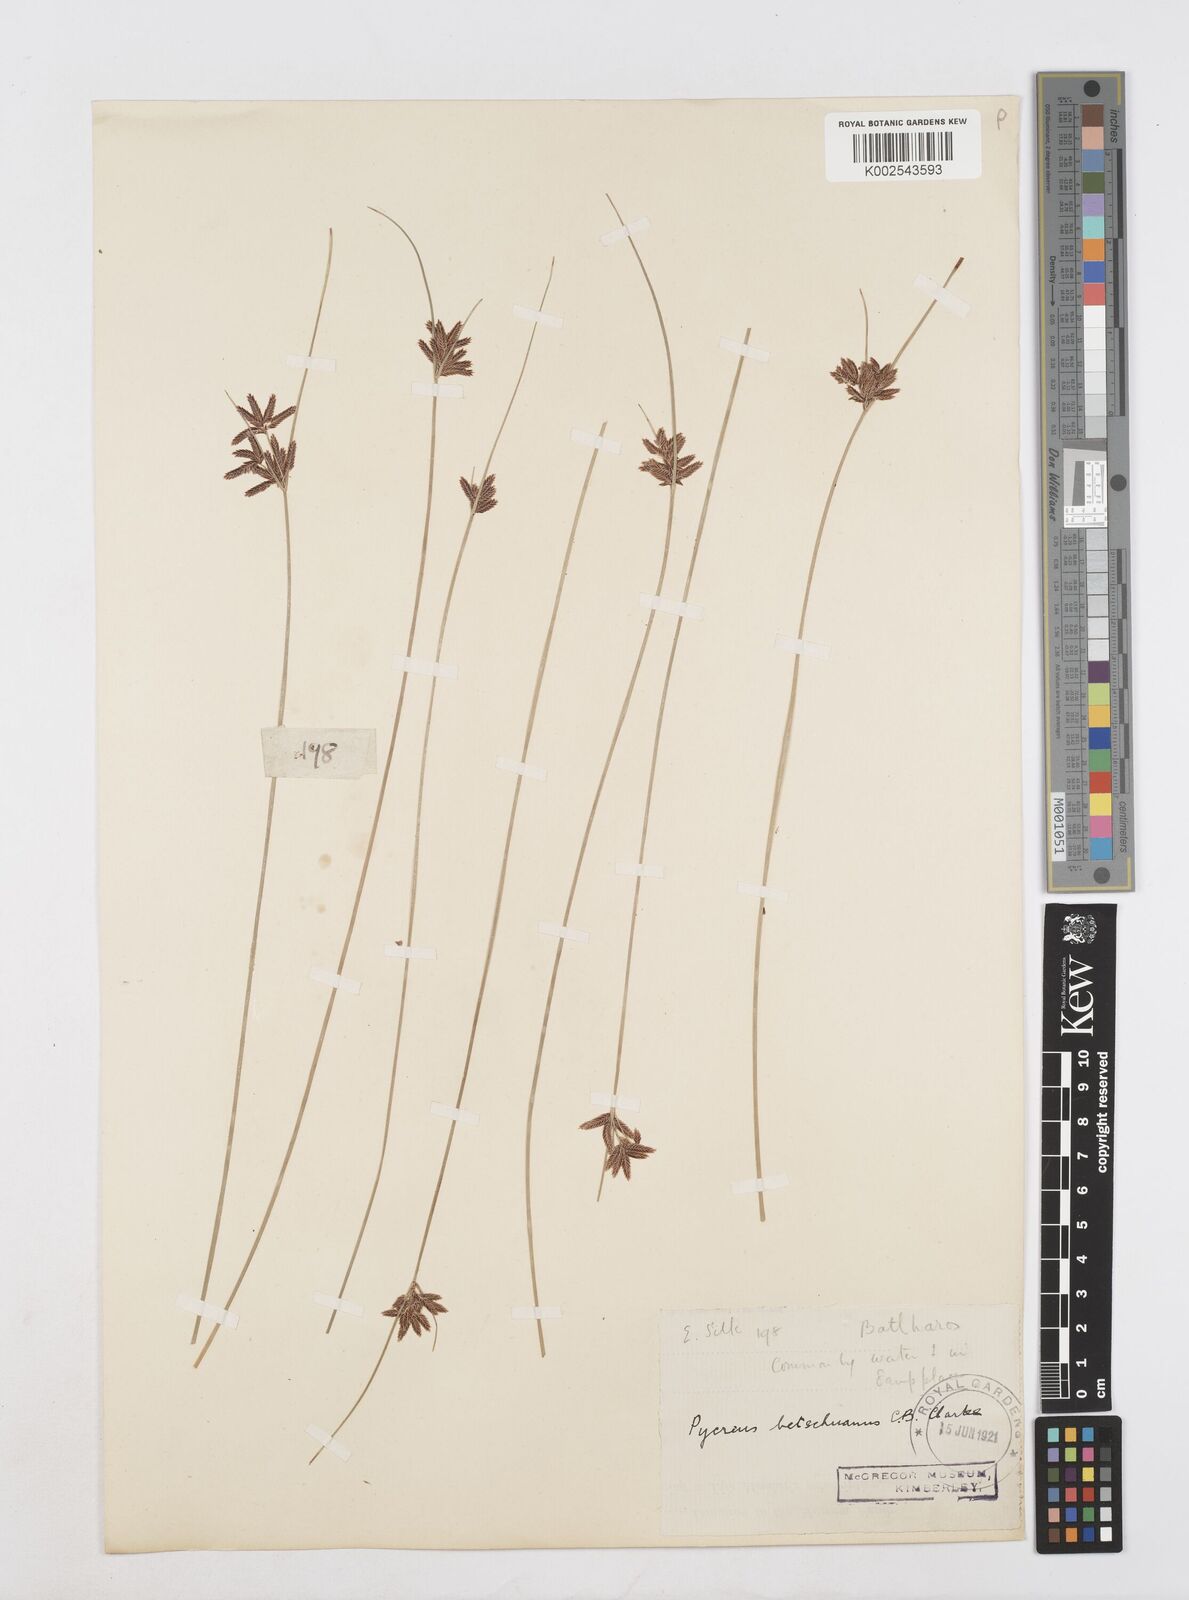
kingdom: Plantae
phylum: Tracheophyta
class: Liliopsida
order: Poales
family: Cyperaceae
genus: Cyperus
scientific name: Cyperus aethiops
